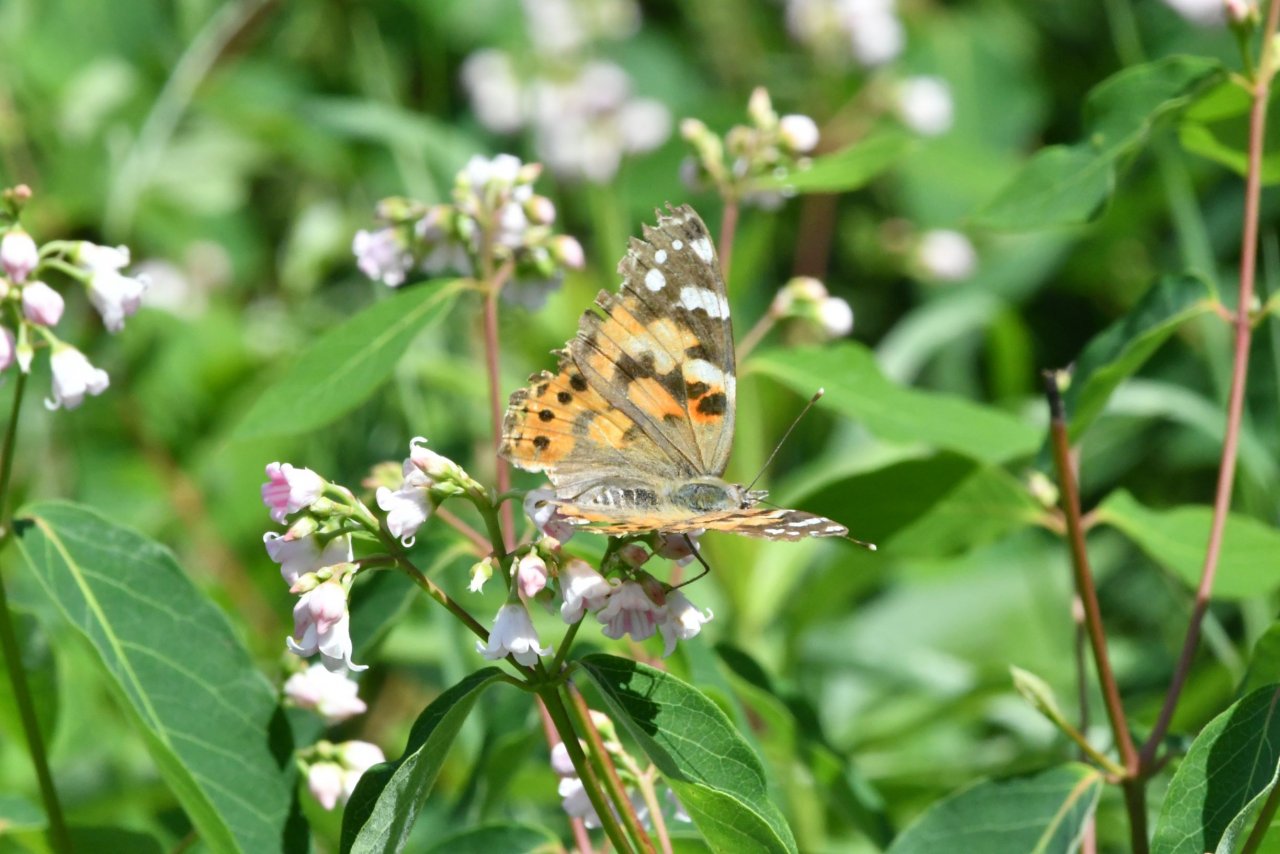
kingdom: Animalia
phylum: Arthropoda
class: Insecta
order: Lepidoptera
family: Nymphalidae
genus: Vanessa
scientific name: Vanessa cardui
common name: Painted Lady
